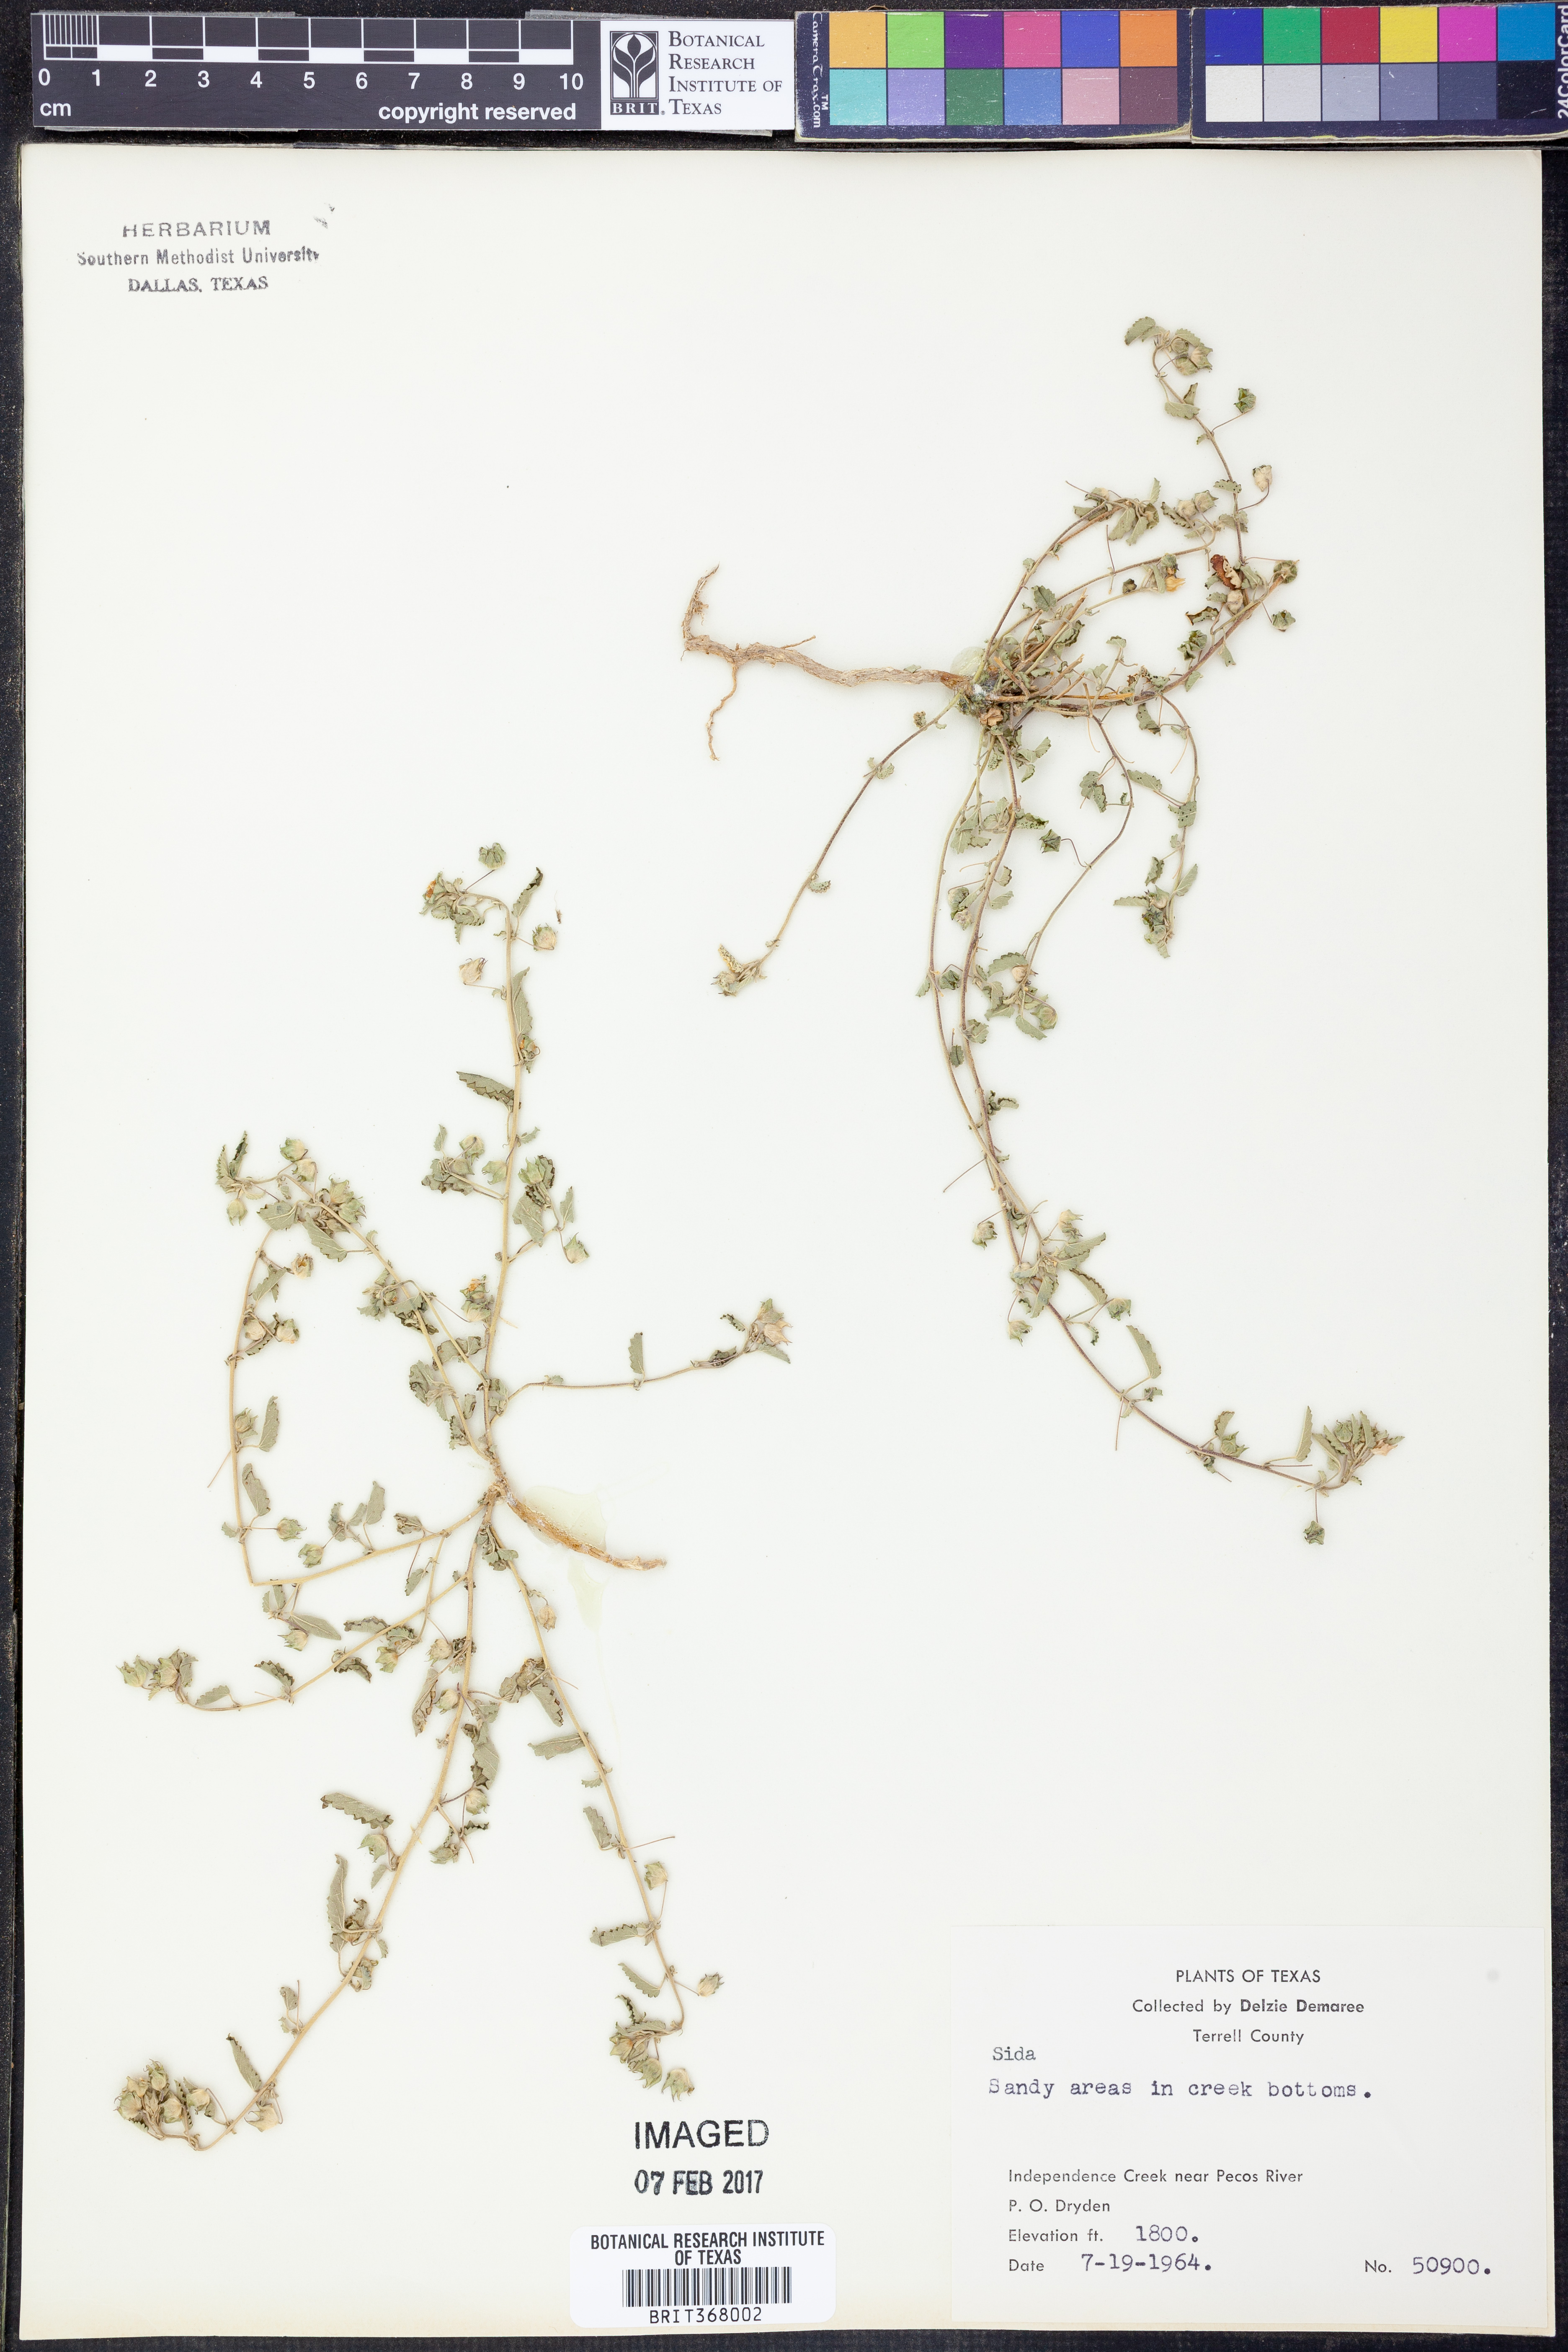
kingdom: Plantae
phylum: Tracheophyta
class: Magnoliopsida
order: Malvales
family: Malvaceae
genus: Sida
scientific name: Sida
